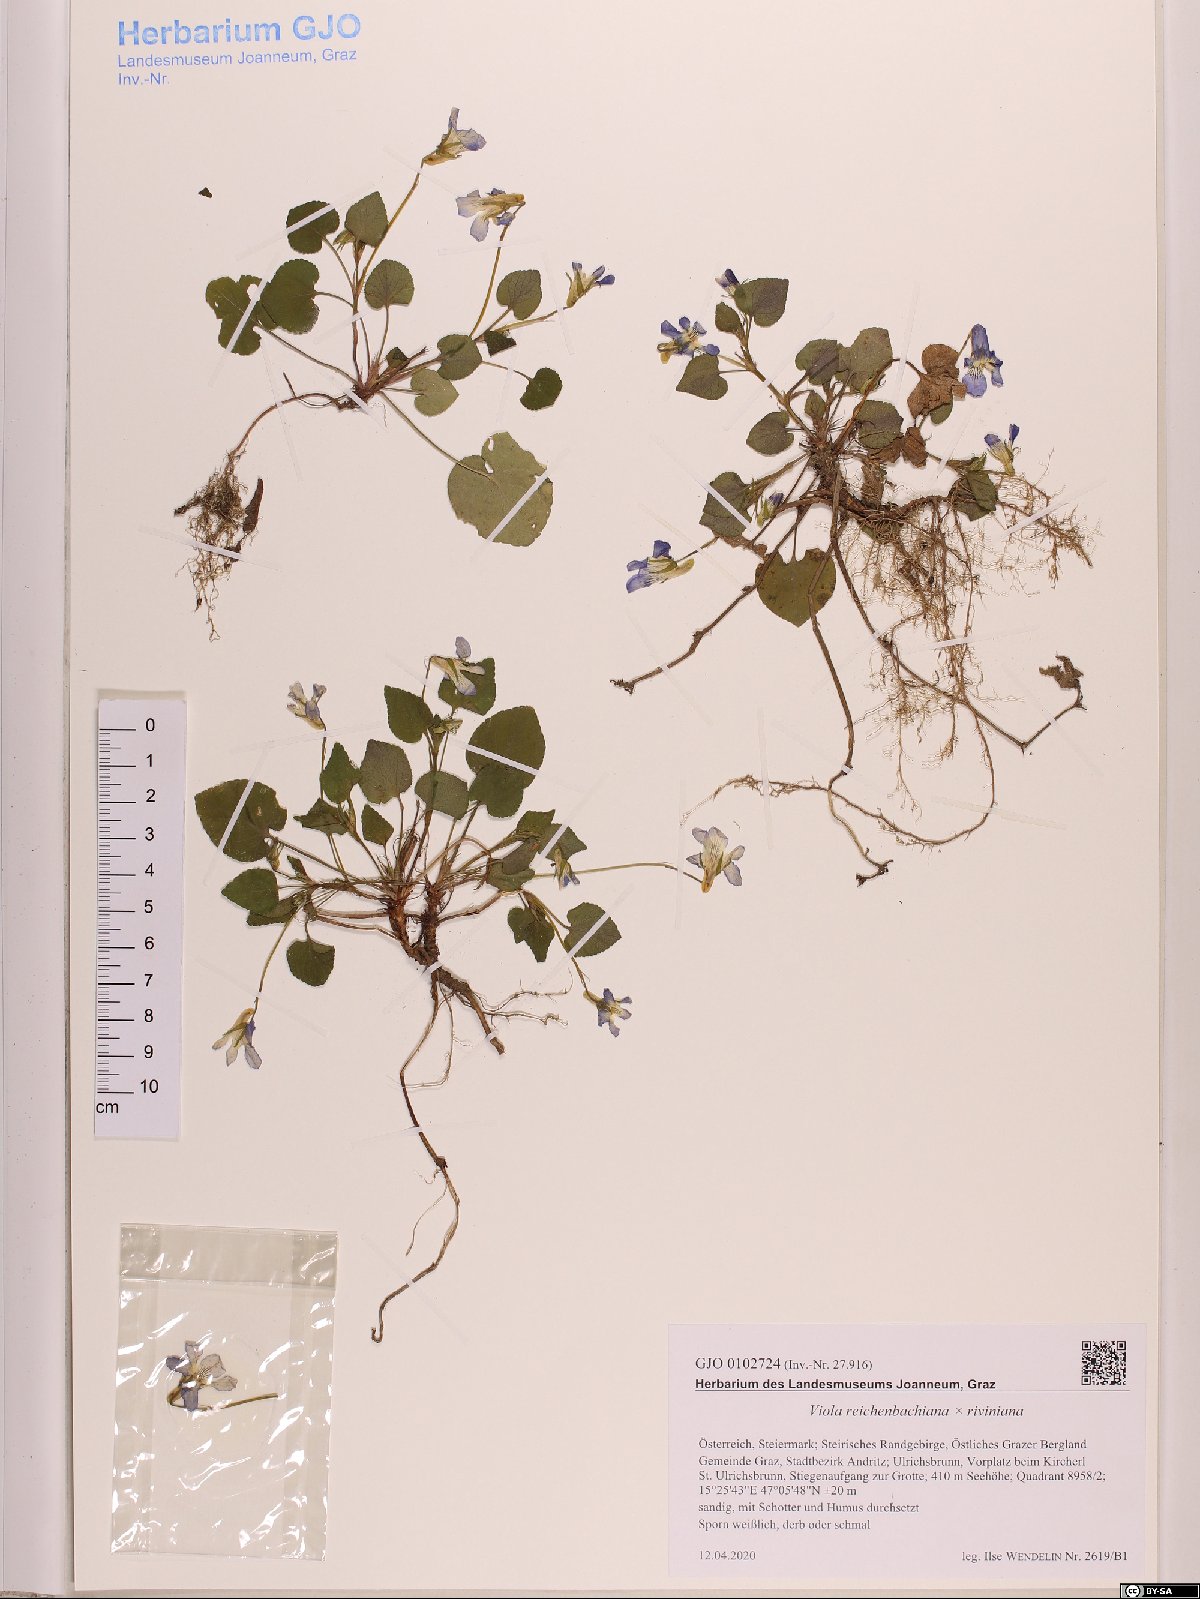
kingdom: Plantae
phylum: Tracheophyta
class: Magnoliopsida
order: Malpighiales
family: Violaceae
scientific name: Violaceae
